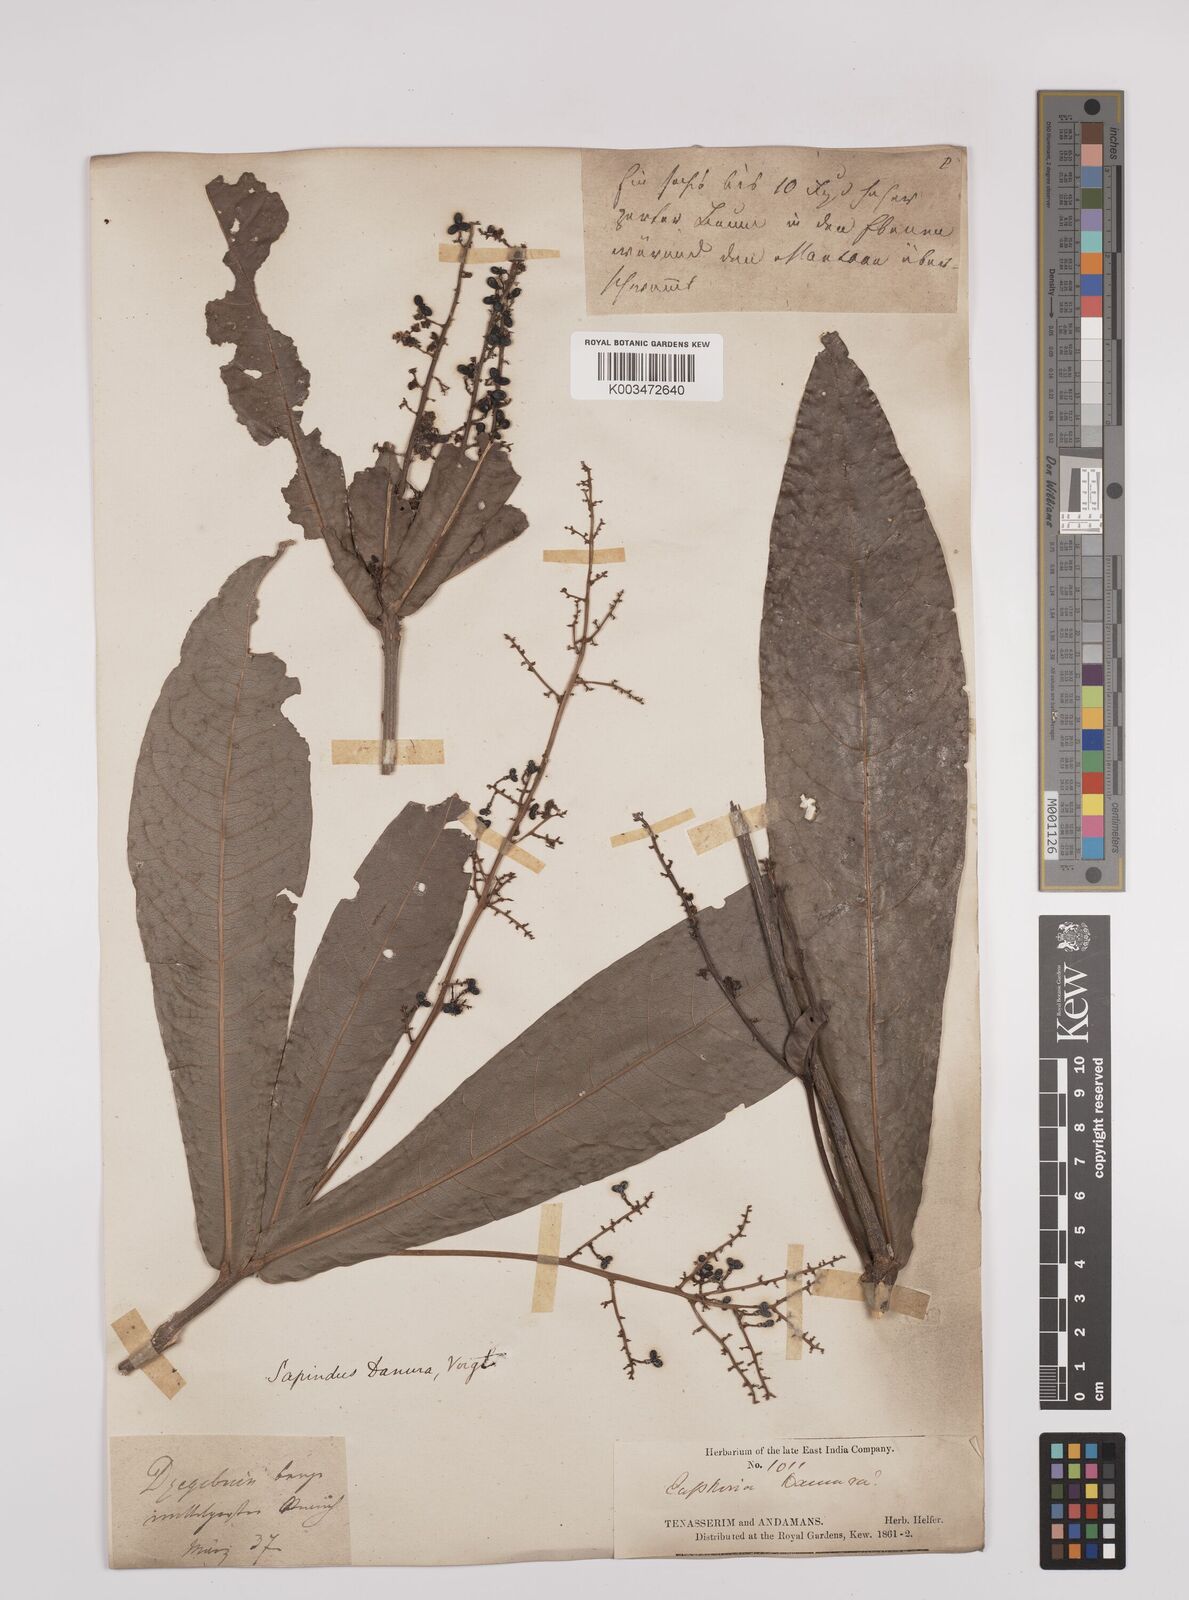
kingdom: Plantae
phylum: Tracheophyta
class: Magnoliopsida
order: Sapindales
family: Sapindaceae
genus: Lepisanthes
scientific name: Lepisanthes senegalensis
